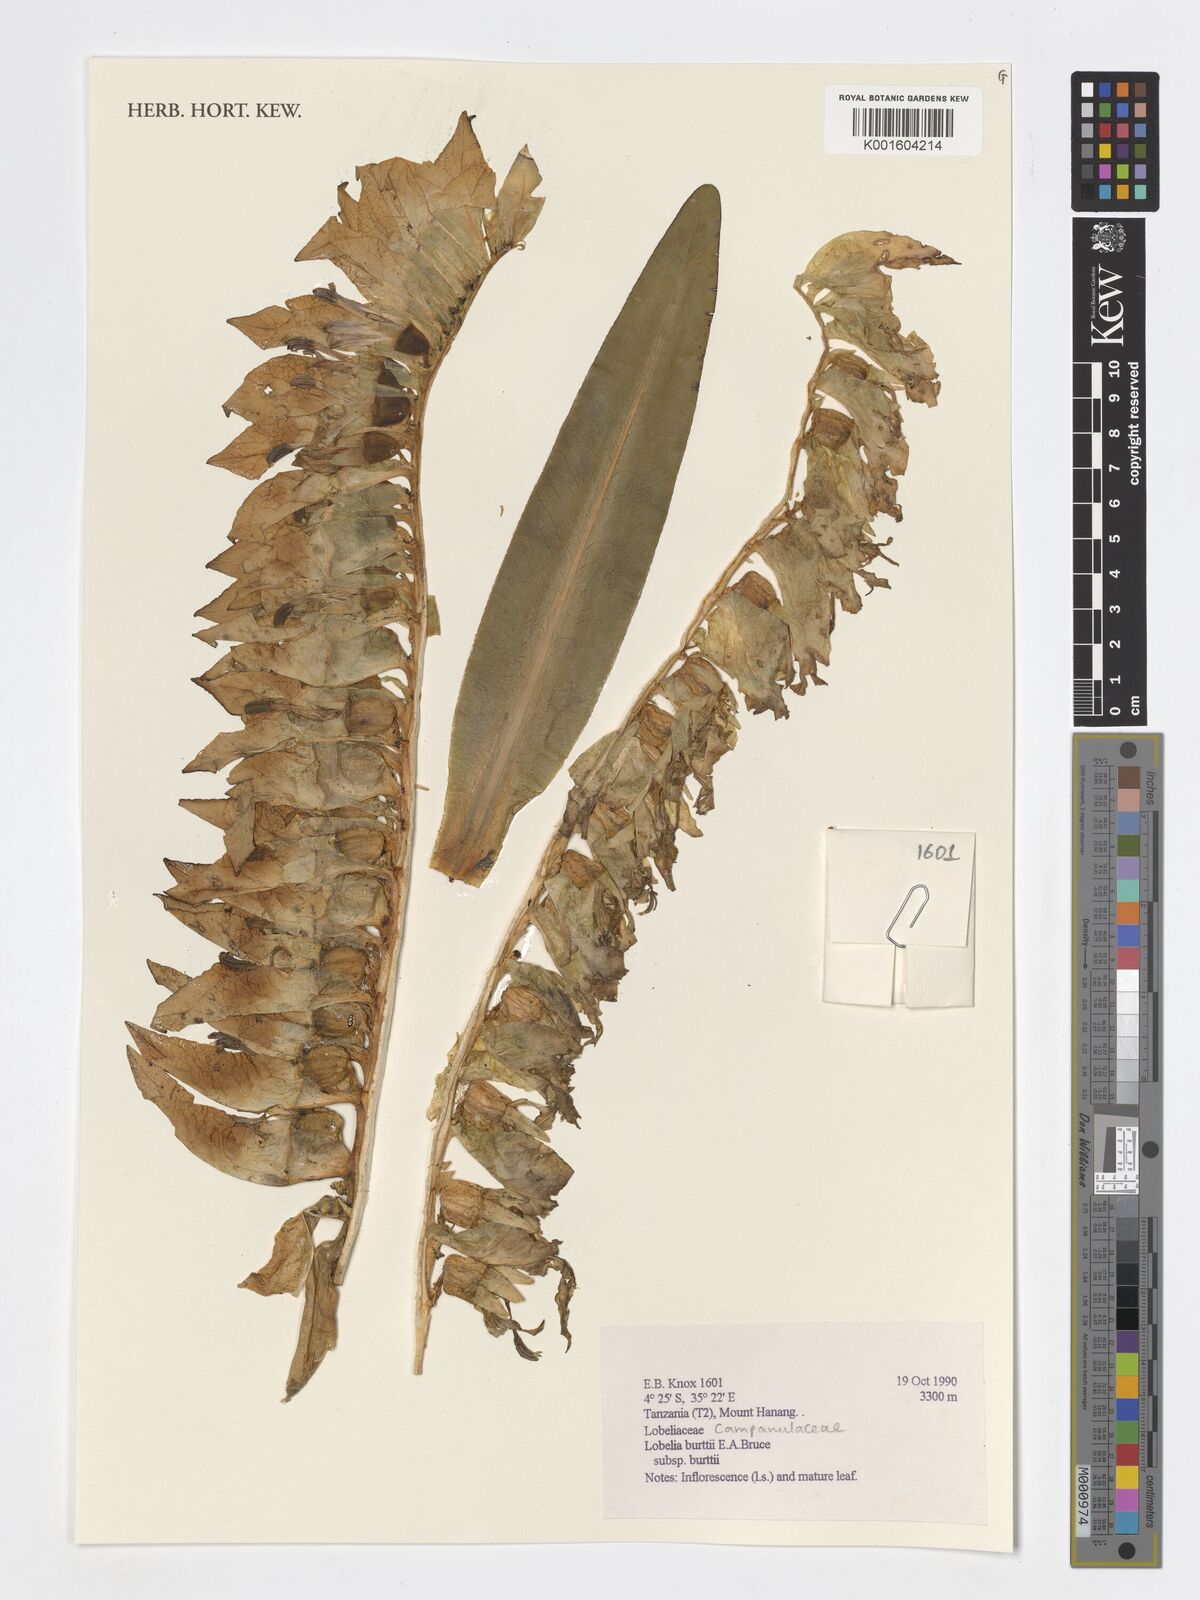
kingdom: Plantae
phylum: Tracheophyta
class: Magnoliopsida
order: Asterales
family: Campanulaceae
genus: Lobelia
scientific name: Lobelia burttii
